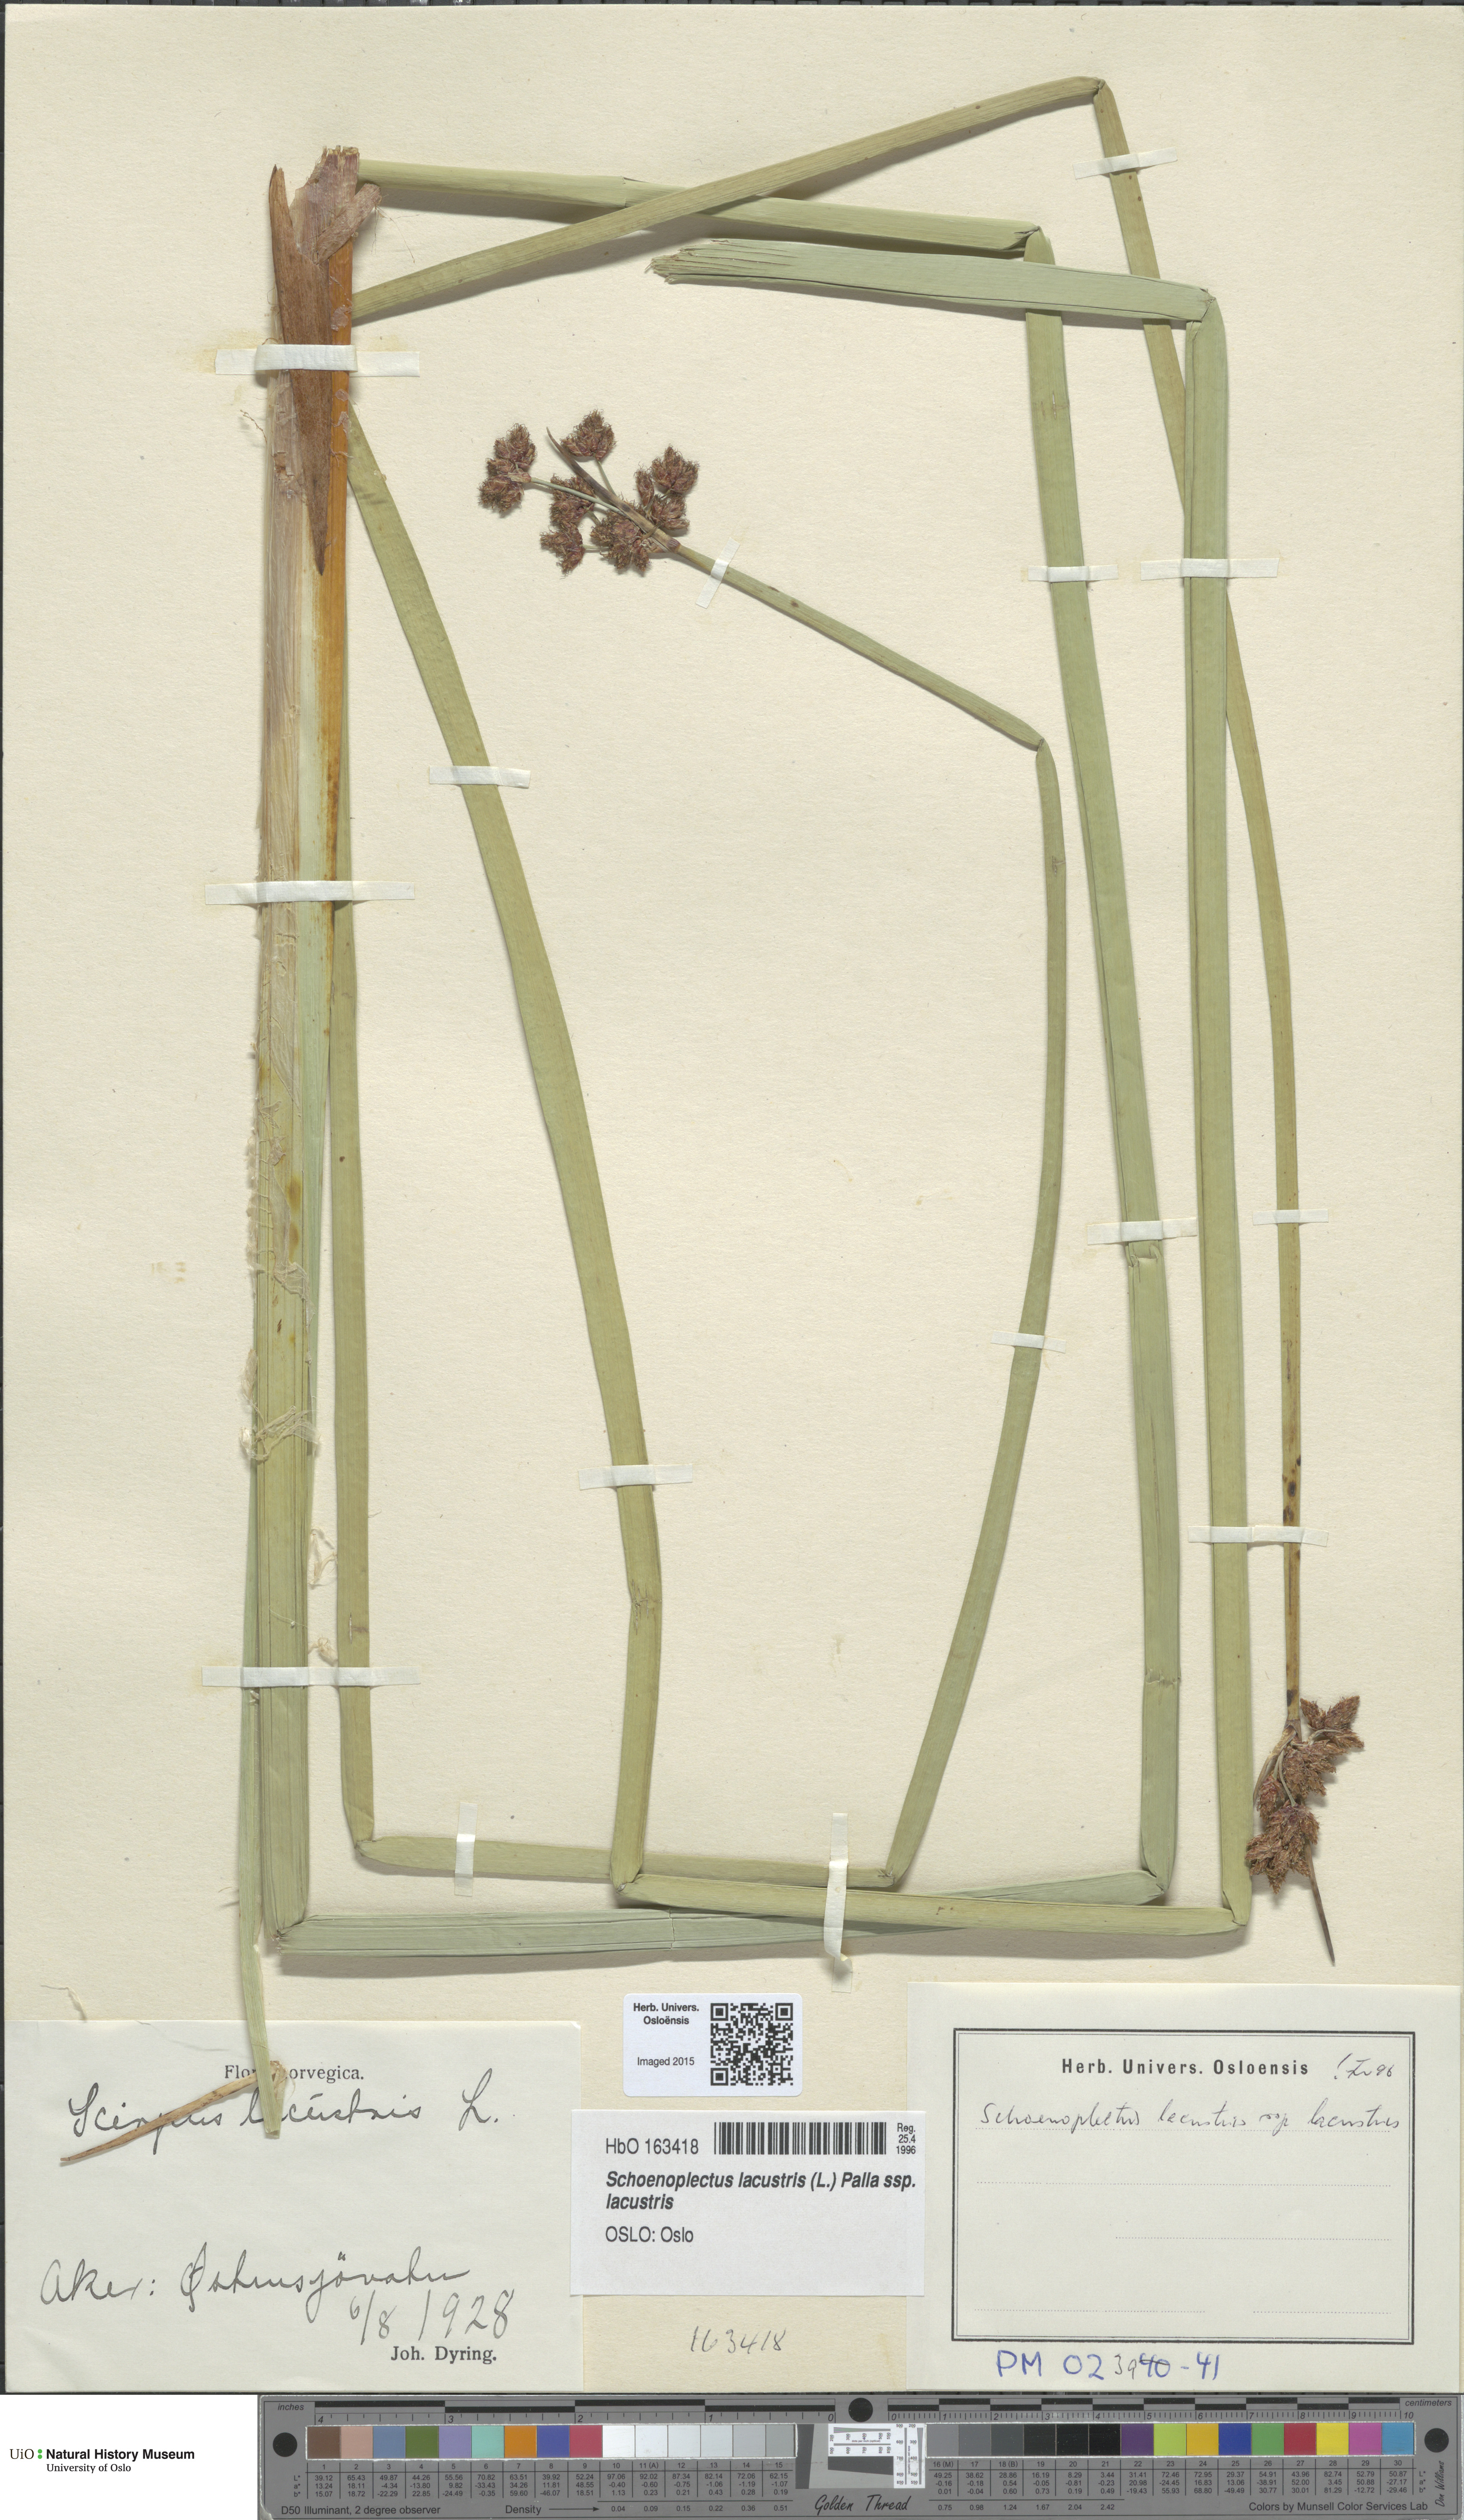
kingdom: Plantae
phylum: Tracheophyta
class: Liliopsida
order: Poales
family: Cyperaceae
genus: Schoenoplectus
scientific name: Schoenoplectus lacustris
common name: Common club-rush
